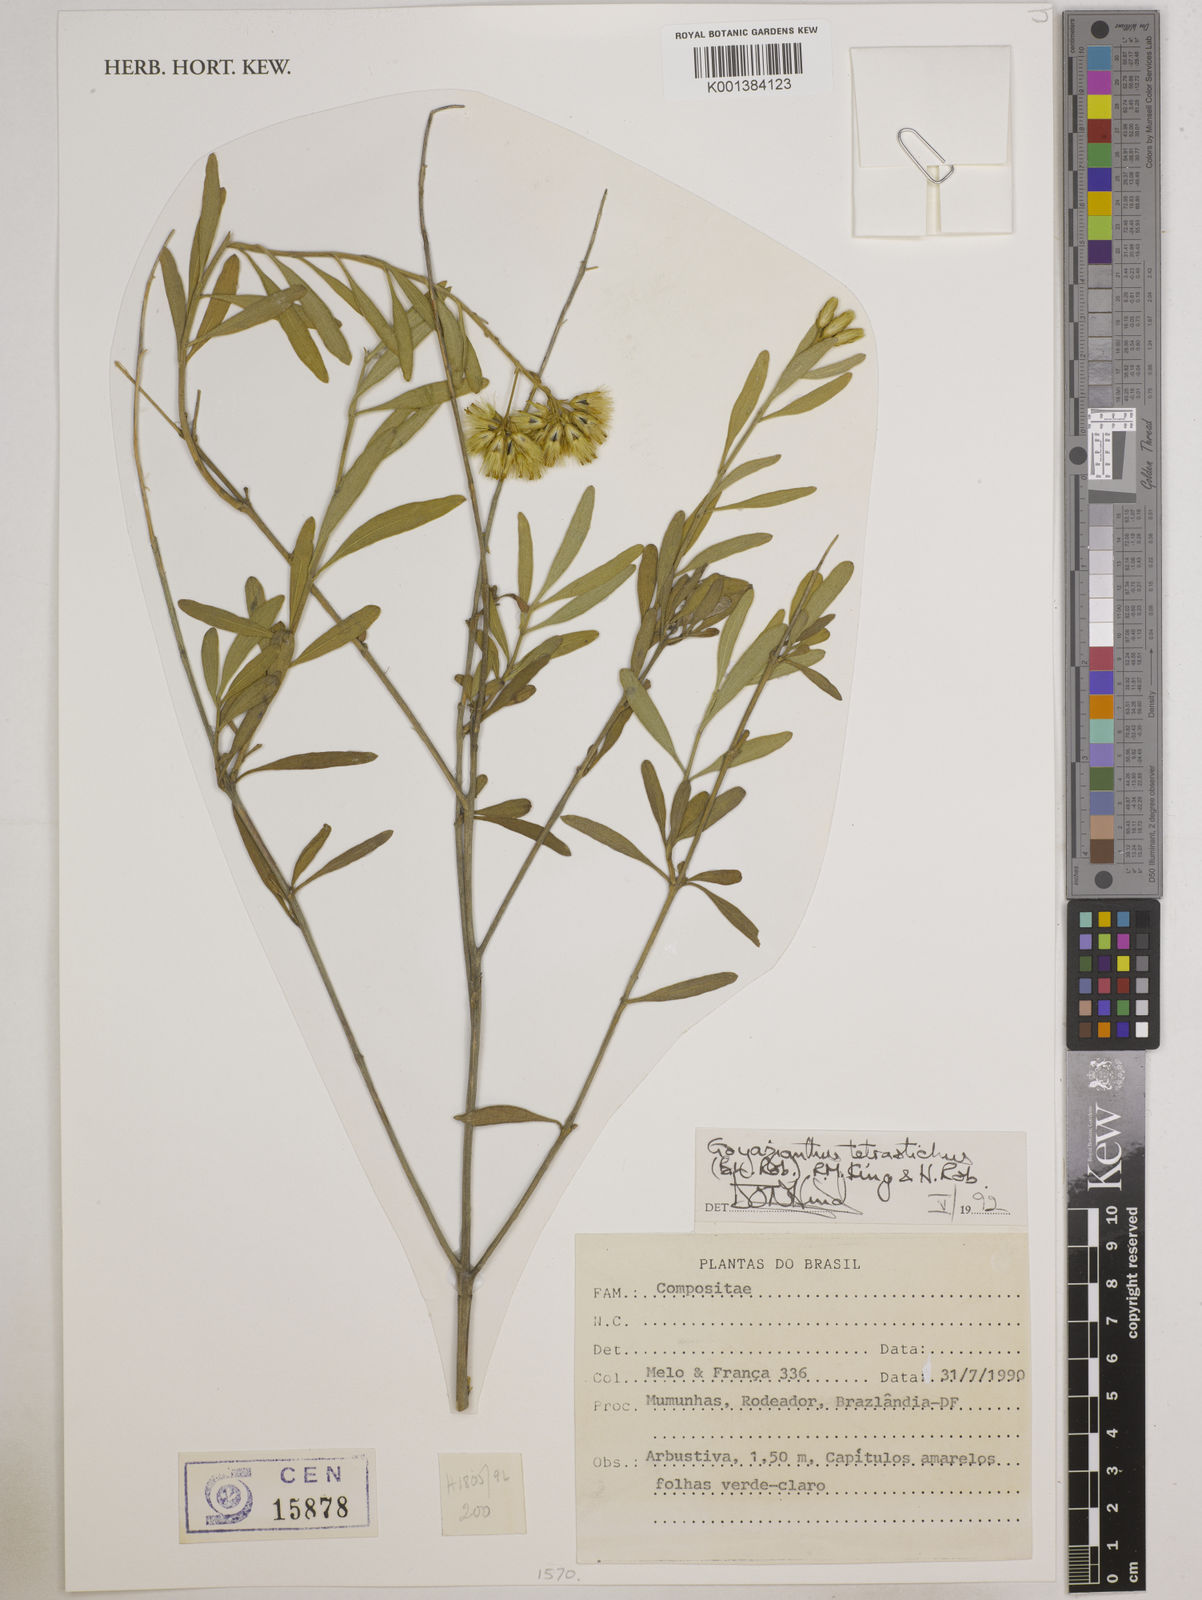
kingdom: Plantae
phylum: Tracheophyta
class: Magnoliopsida
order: Asterales
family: Asteraceae
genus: Goyazianthus
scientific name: Goyazianthus tetrastichus
